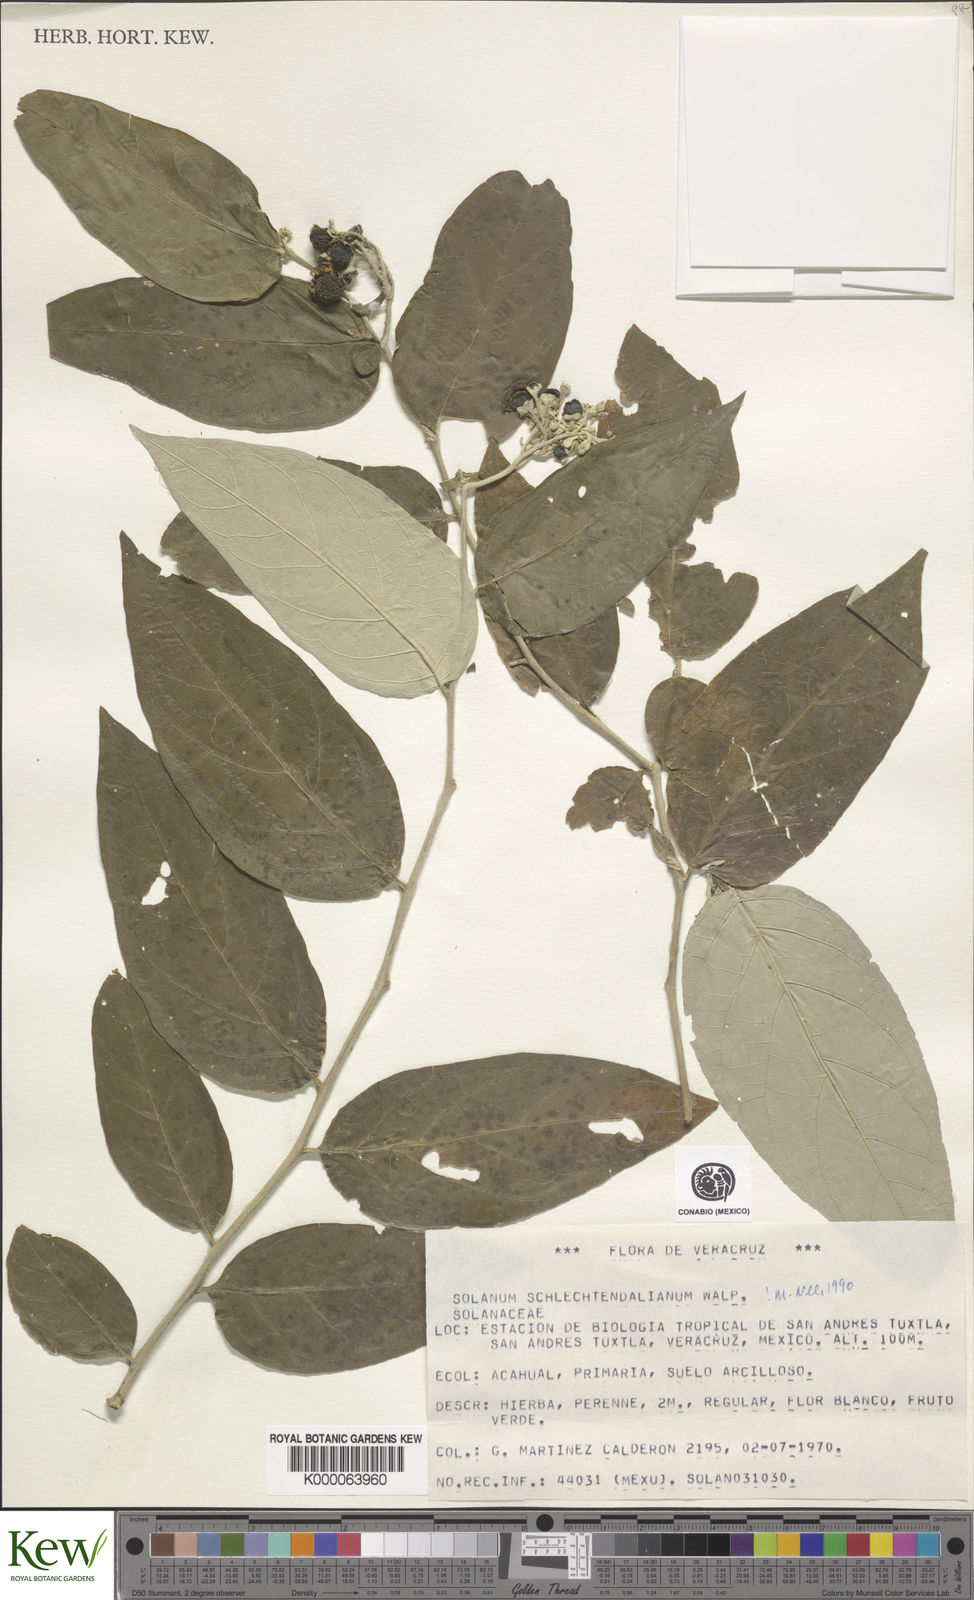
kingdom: Plantae
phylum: Tracheophyta
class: Magnoliopsida
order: Solanales
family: Solanaceae
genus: Solanum
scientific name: Solanum schlechtendalianum
